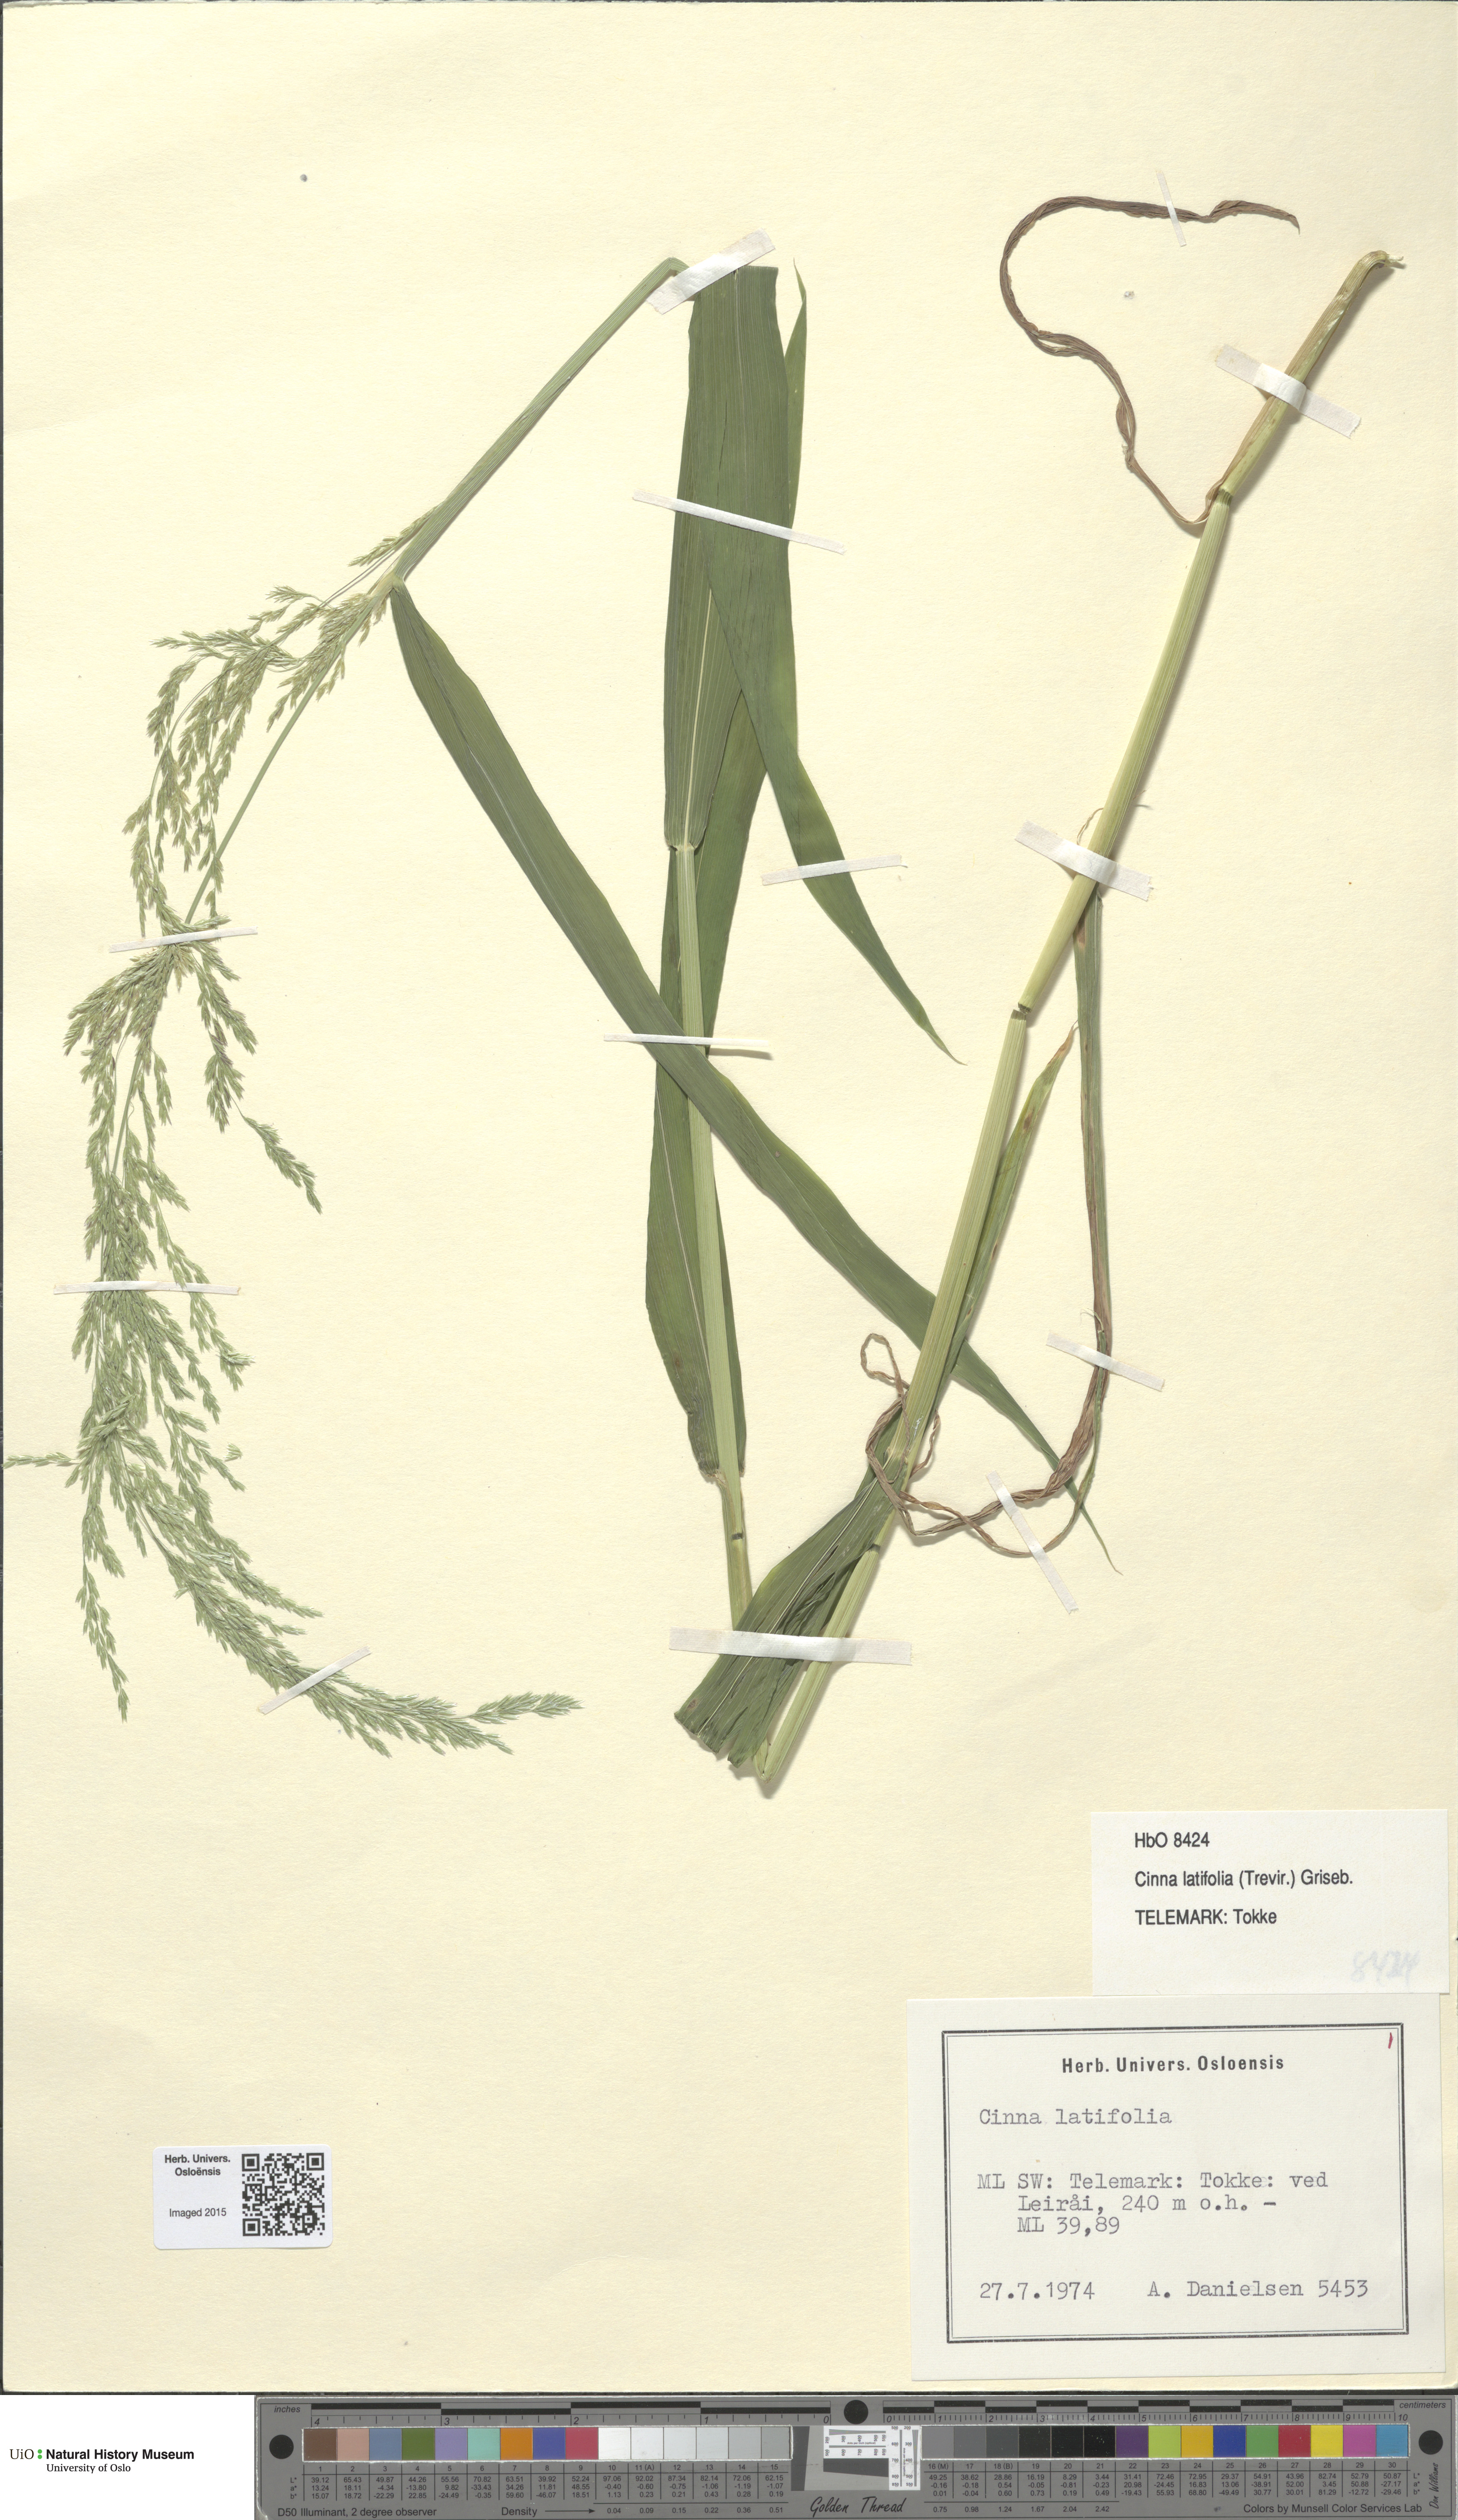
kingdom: Plantae
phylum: Tracheophyta
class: Liliopsida
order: Poales
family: Poaceae
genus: Cinna
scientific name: Cinna latifolia
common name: Drooping woodreed
